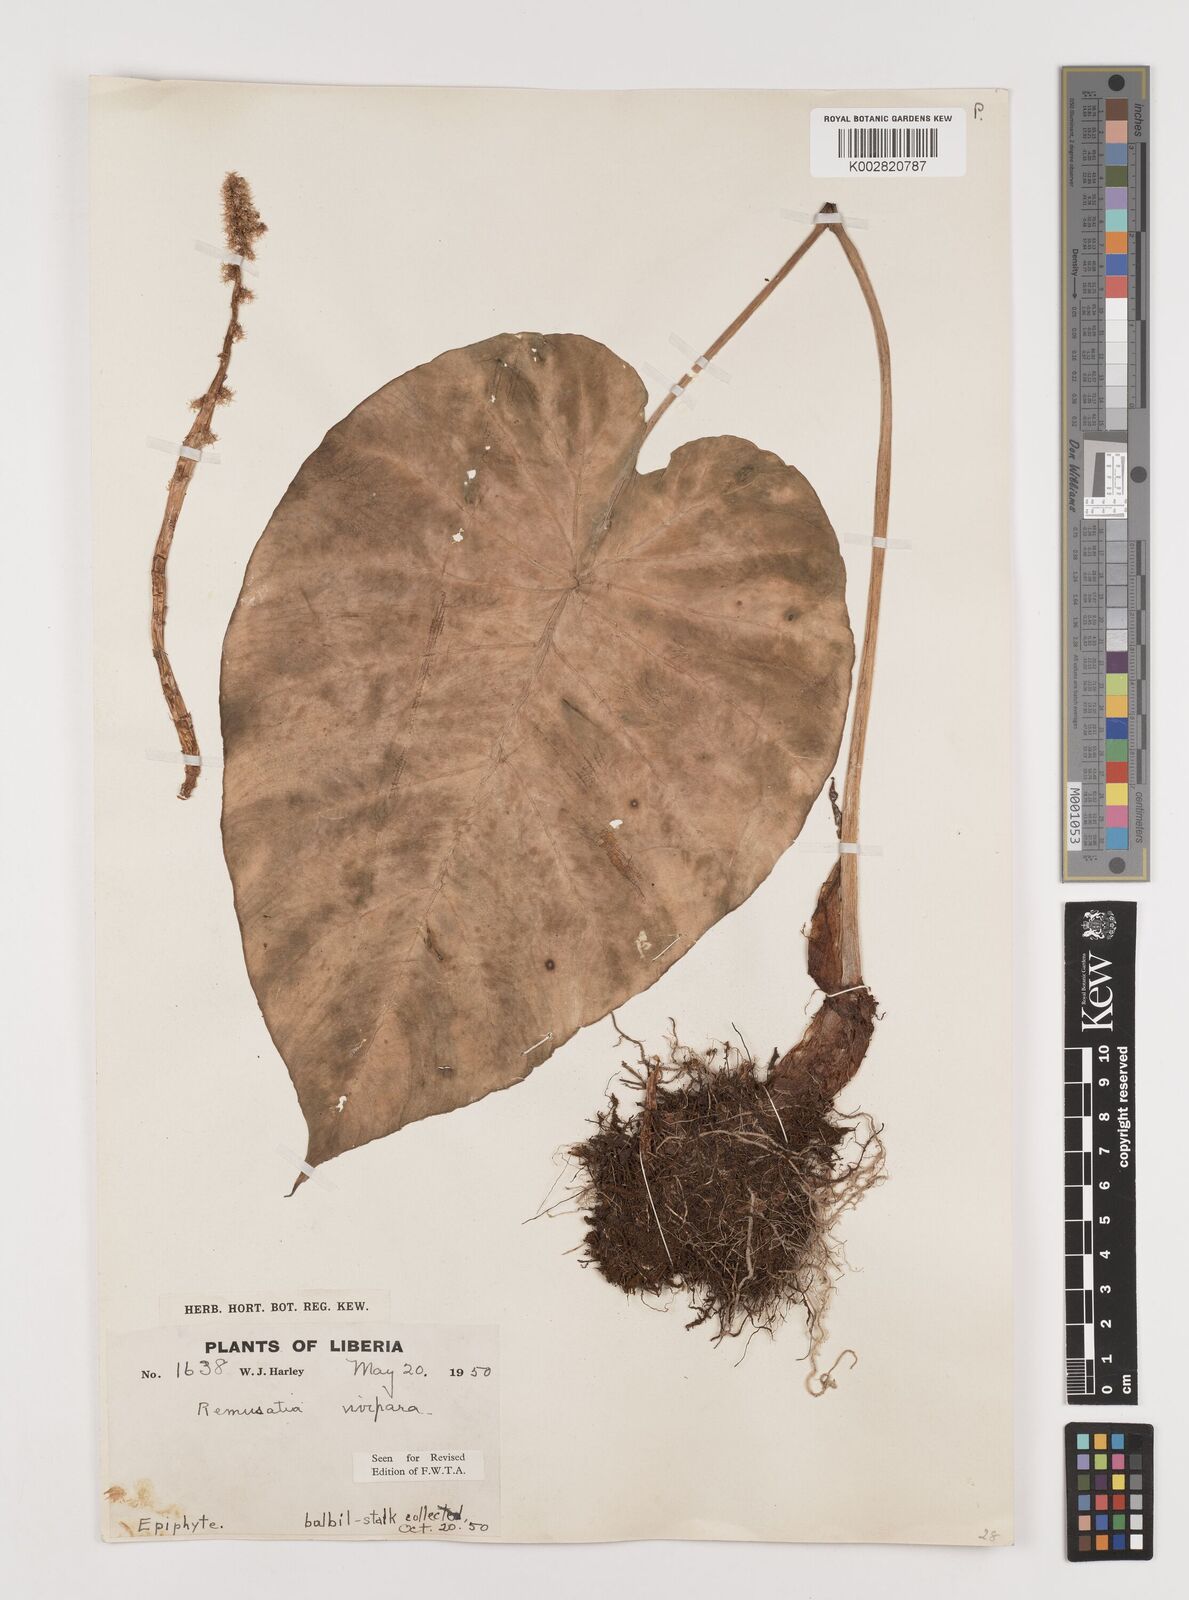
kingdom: Plantae
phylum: Tracheophyta
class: Liliopsida
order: Alismatales
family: Araceae
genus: Remusatia
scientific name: Remusatia vivipara
